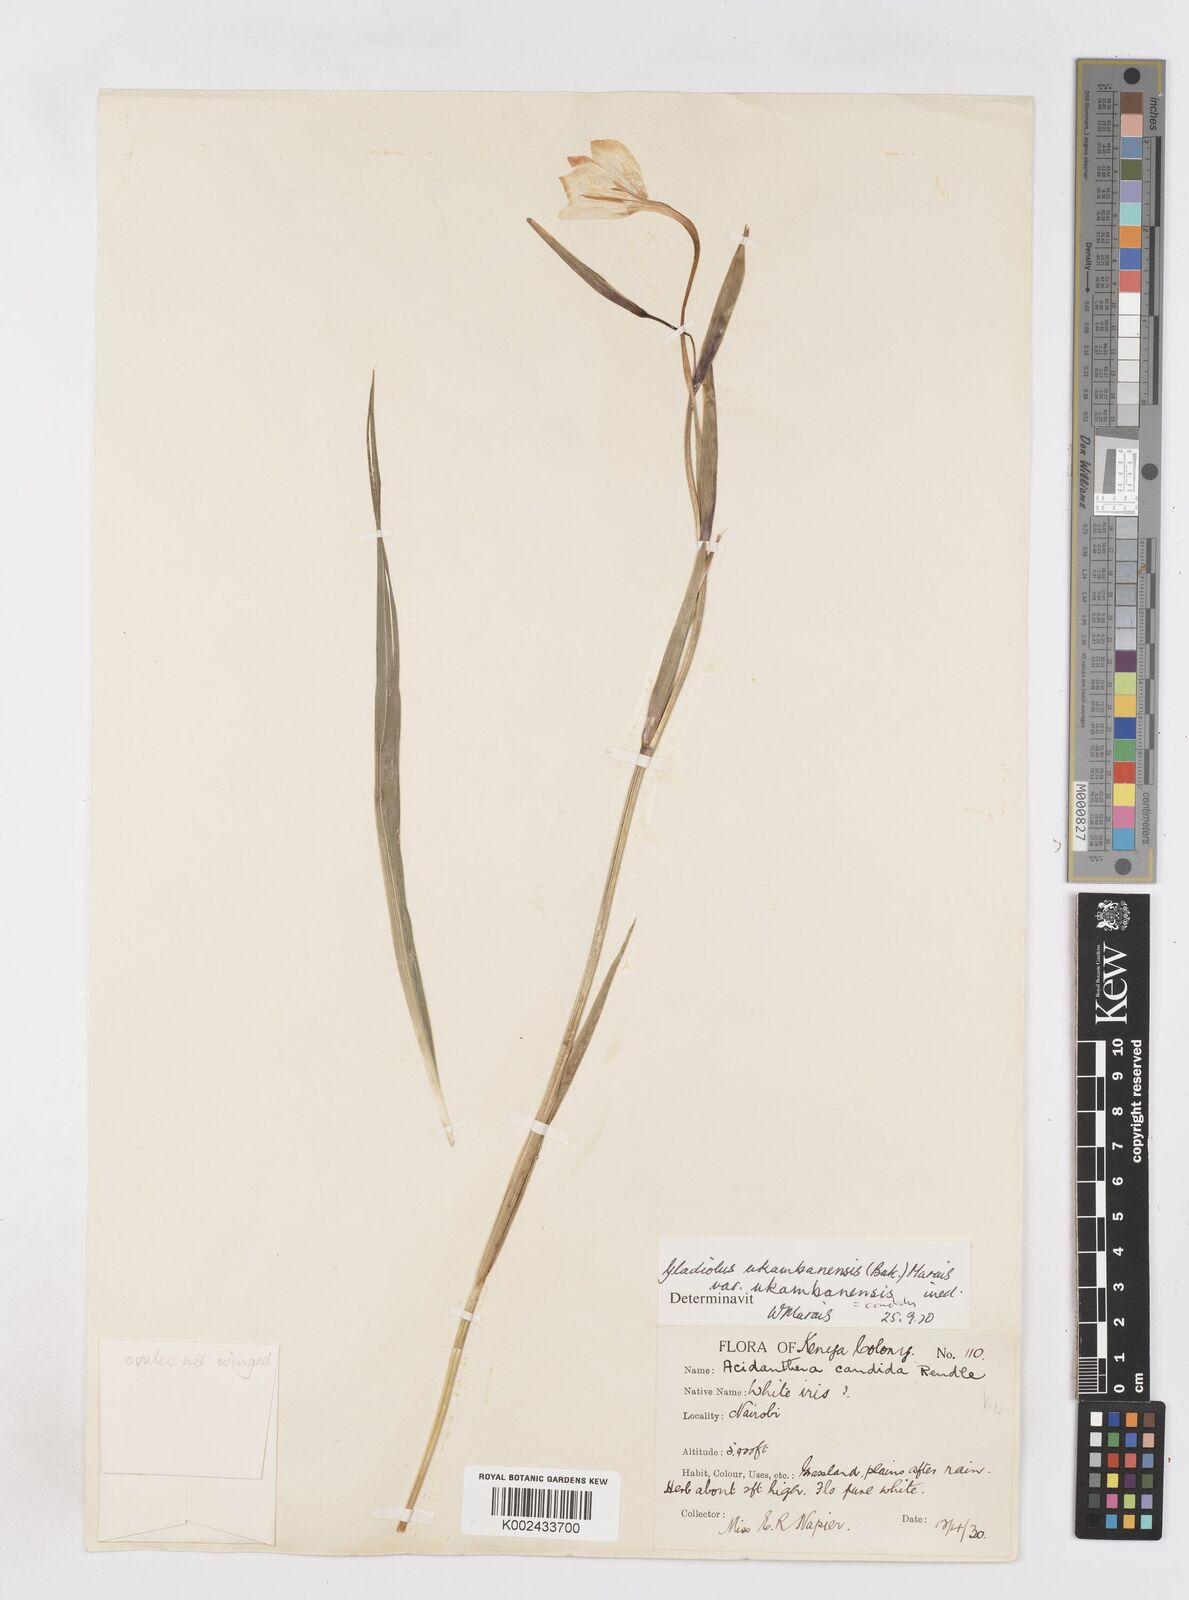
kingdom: Plantae
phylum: Tracheophyta
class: Liliopsida
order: Asparagales
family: Iridaceae
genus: Gladiolus
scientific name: Gladiolus candidus
